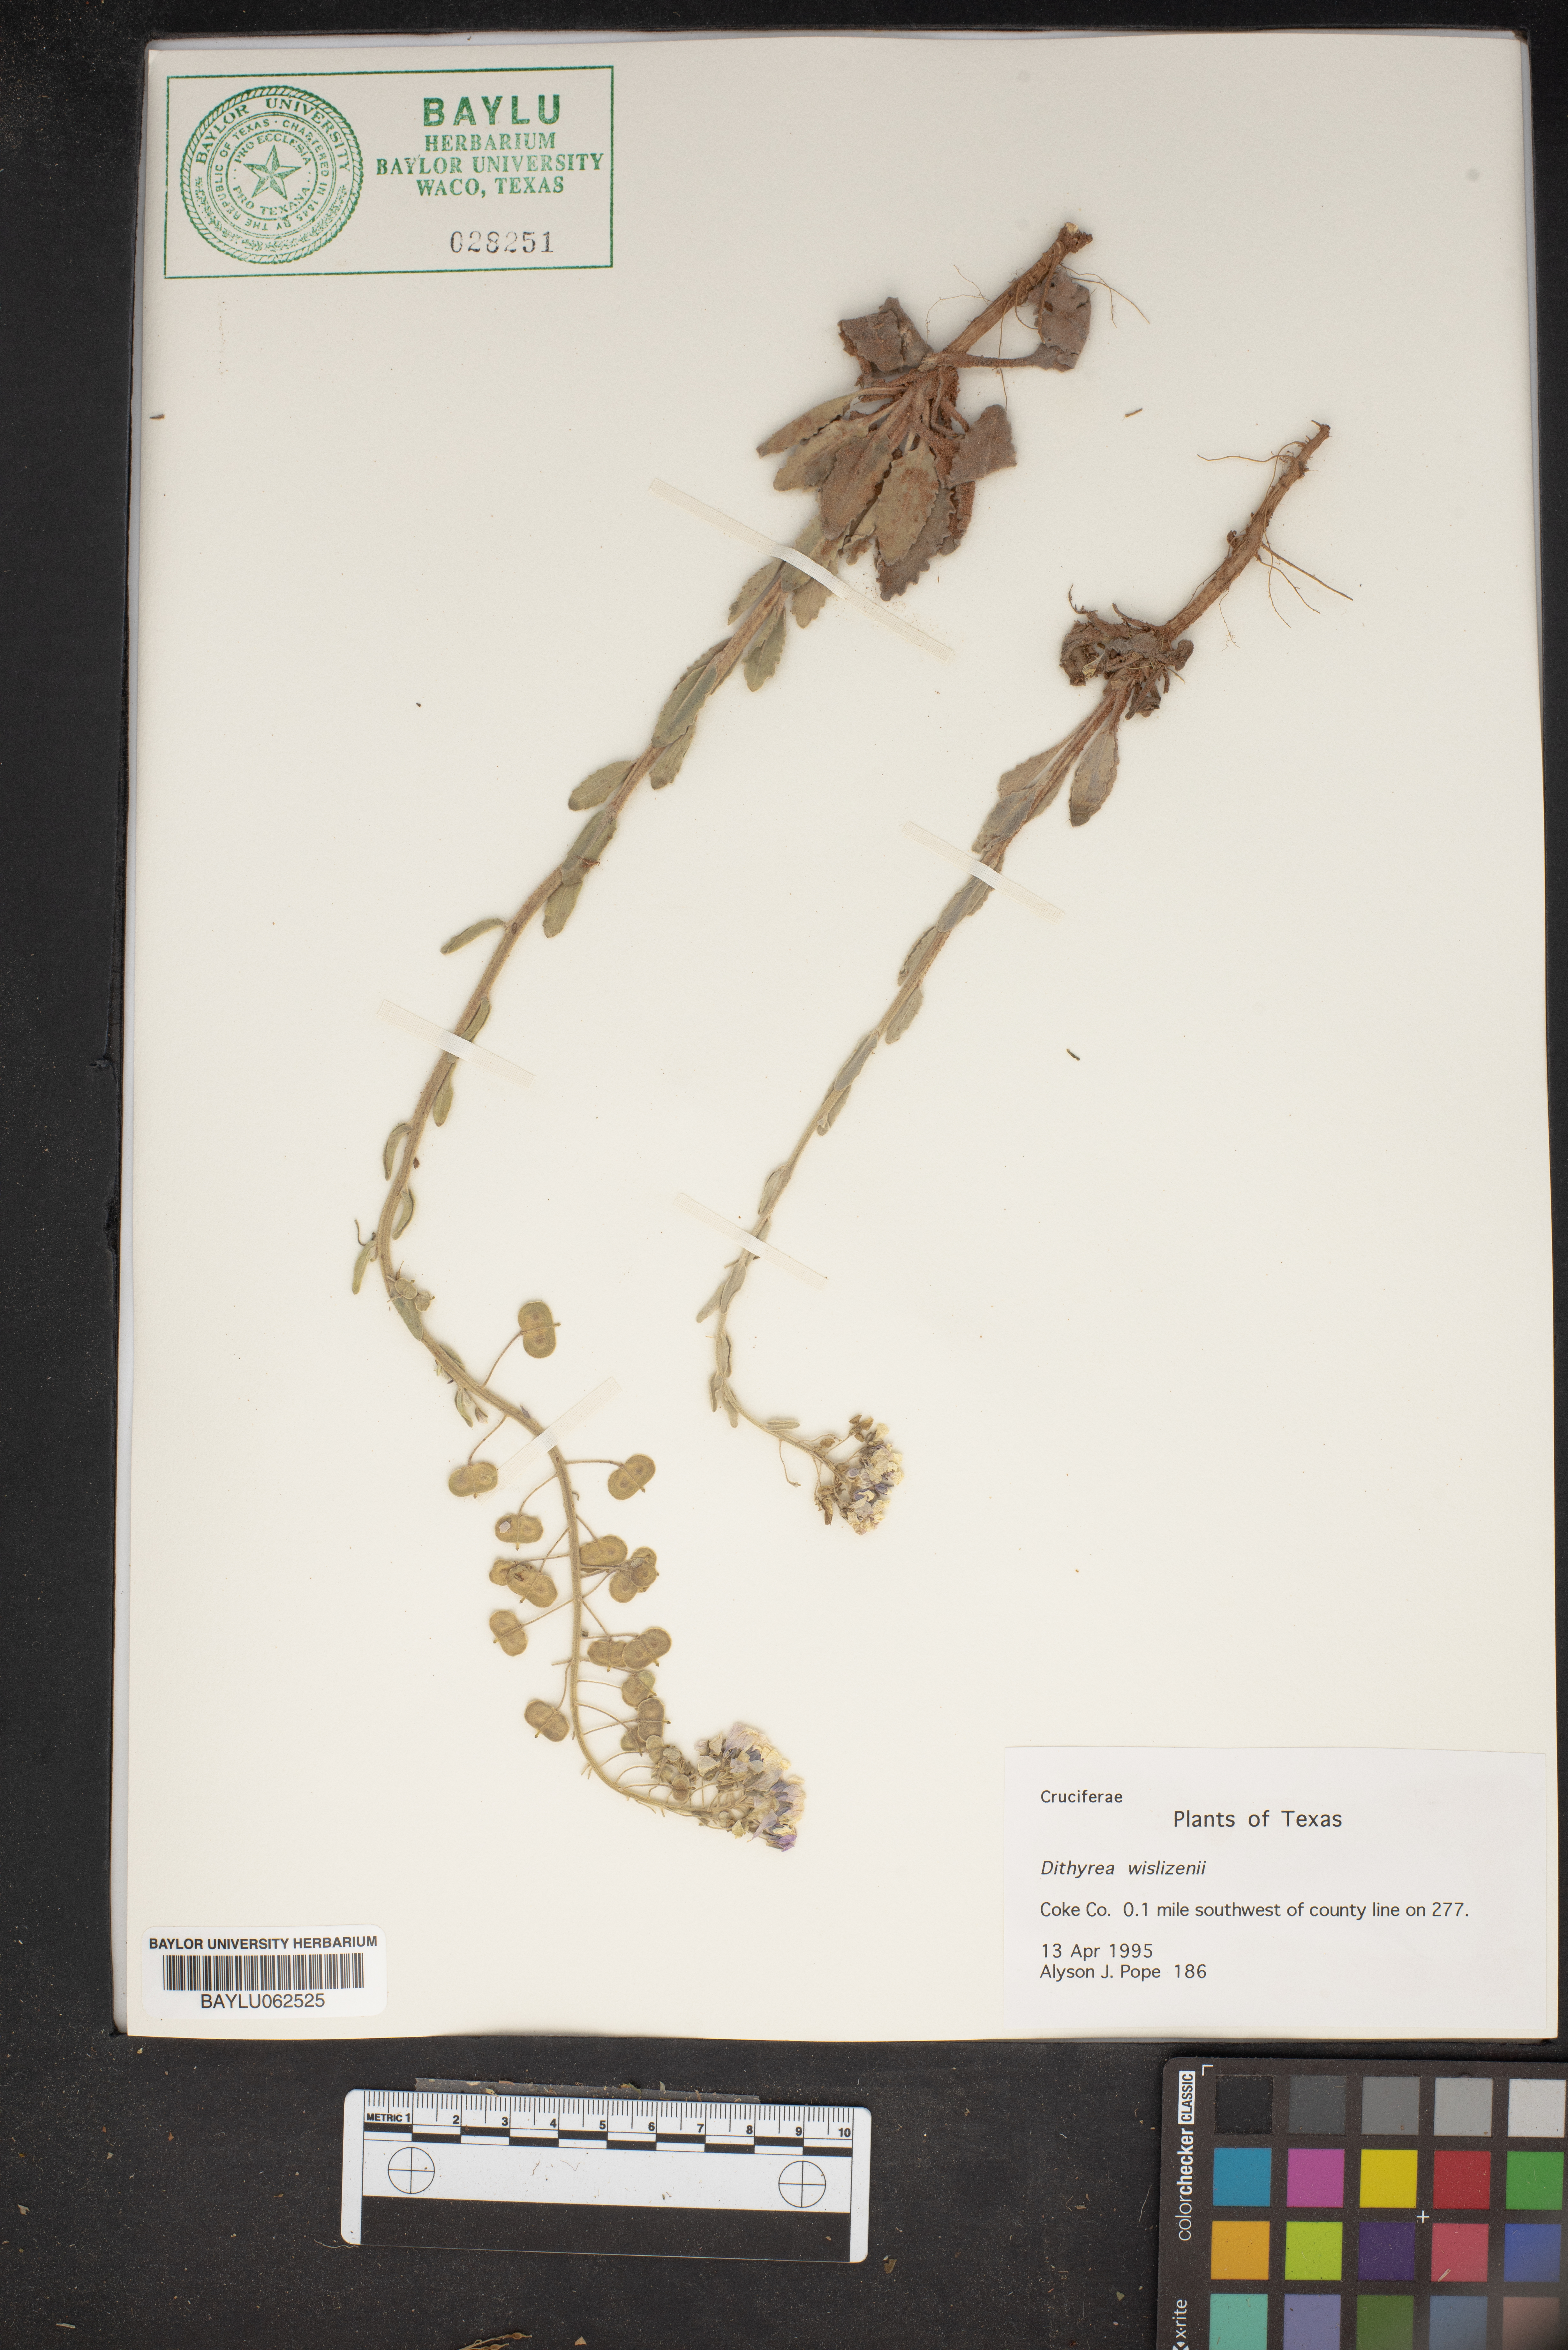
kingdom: Plantae
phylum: Tracheophyta
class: Magnoliopsida
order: Brassicales
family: Brassicaceae
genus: Dimorphocarpa
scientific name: Dimorphocarpa wislizenii
